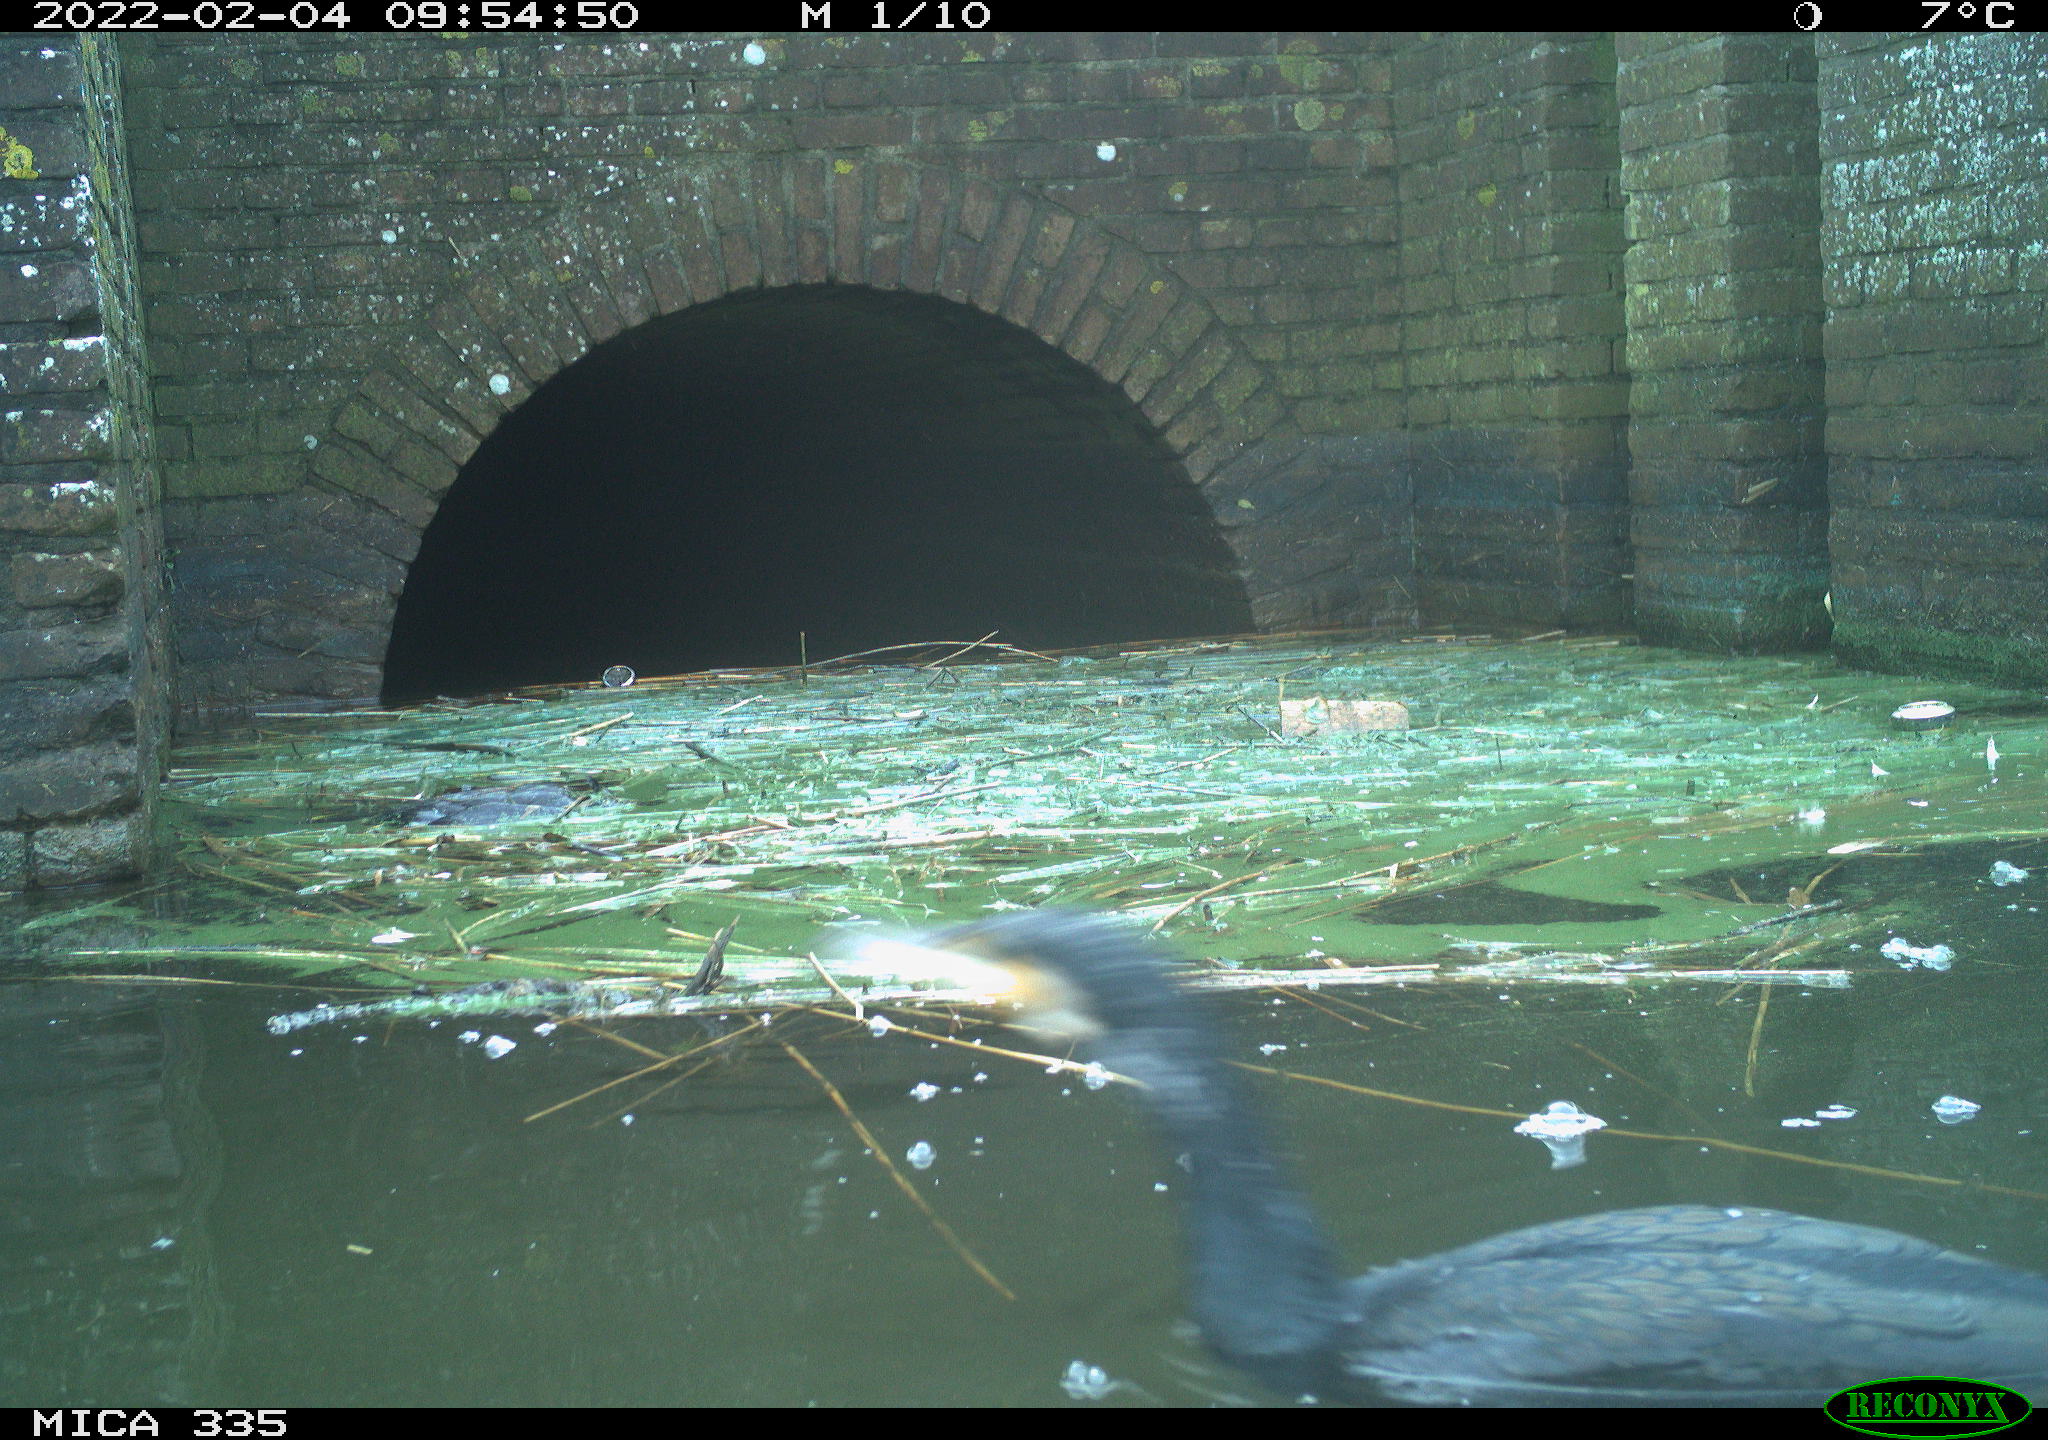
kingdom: Animalia
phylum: Chordata
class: Aves
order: Suliformes
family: Phalacrocoracidae
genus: Phalacrocorax
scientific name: Phalacrocorax carbo
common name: Great cormorant
